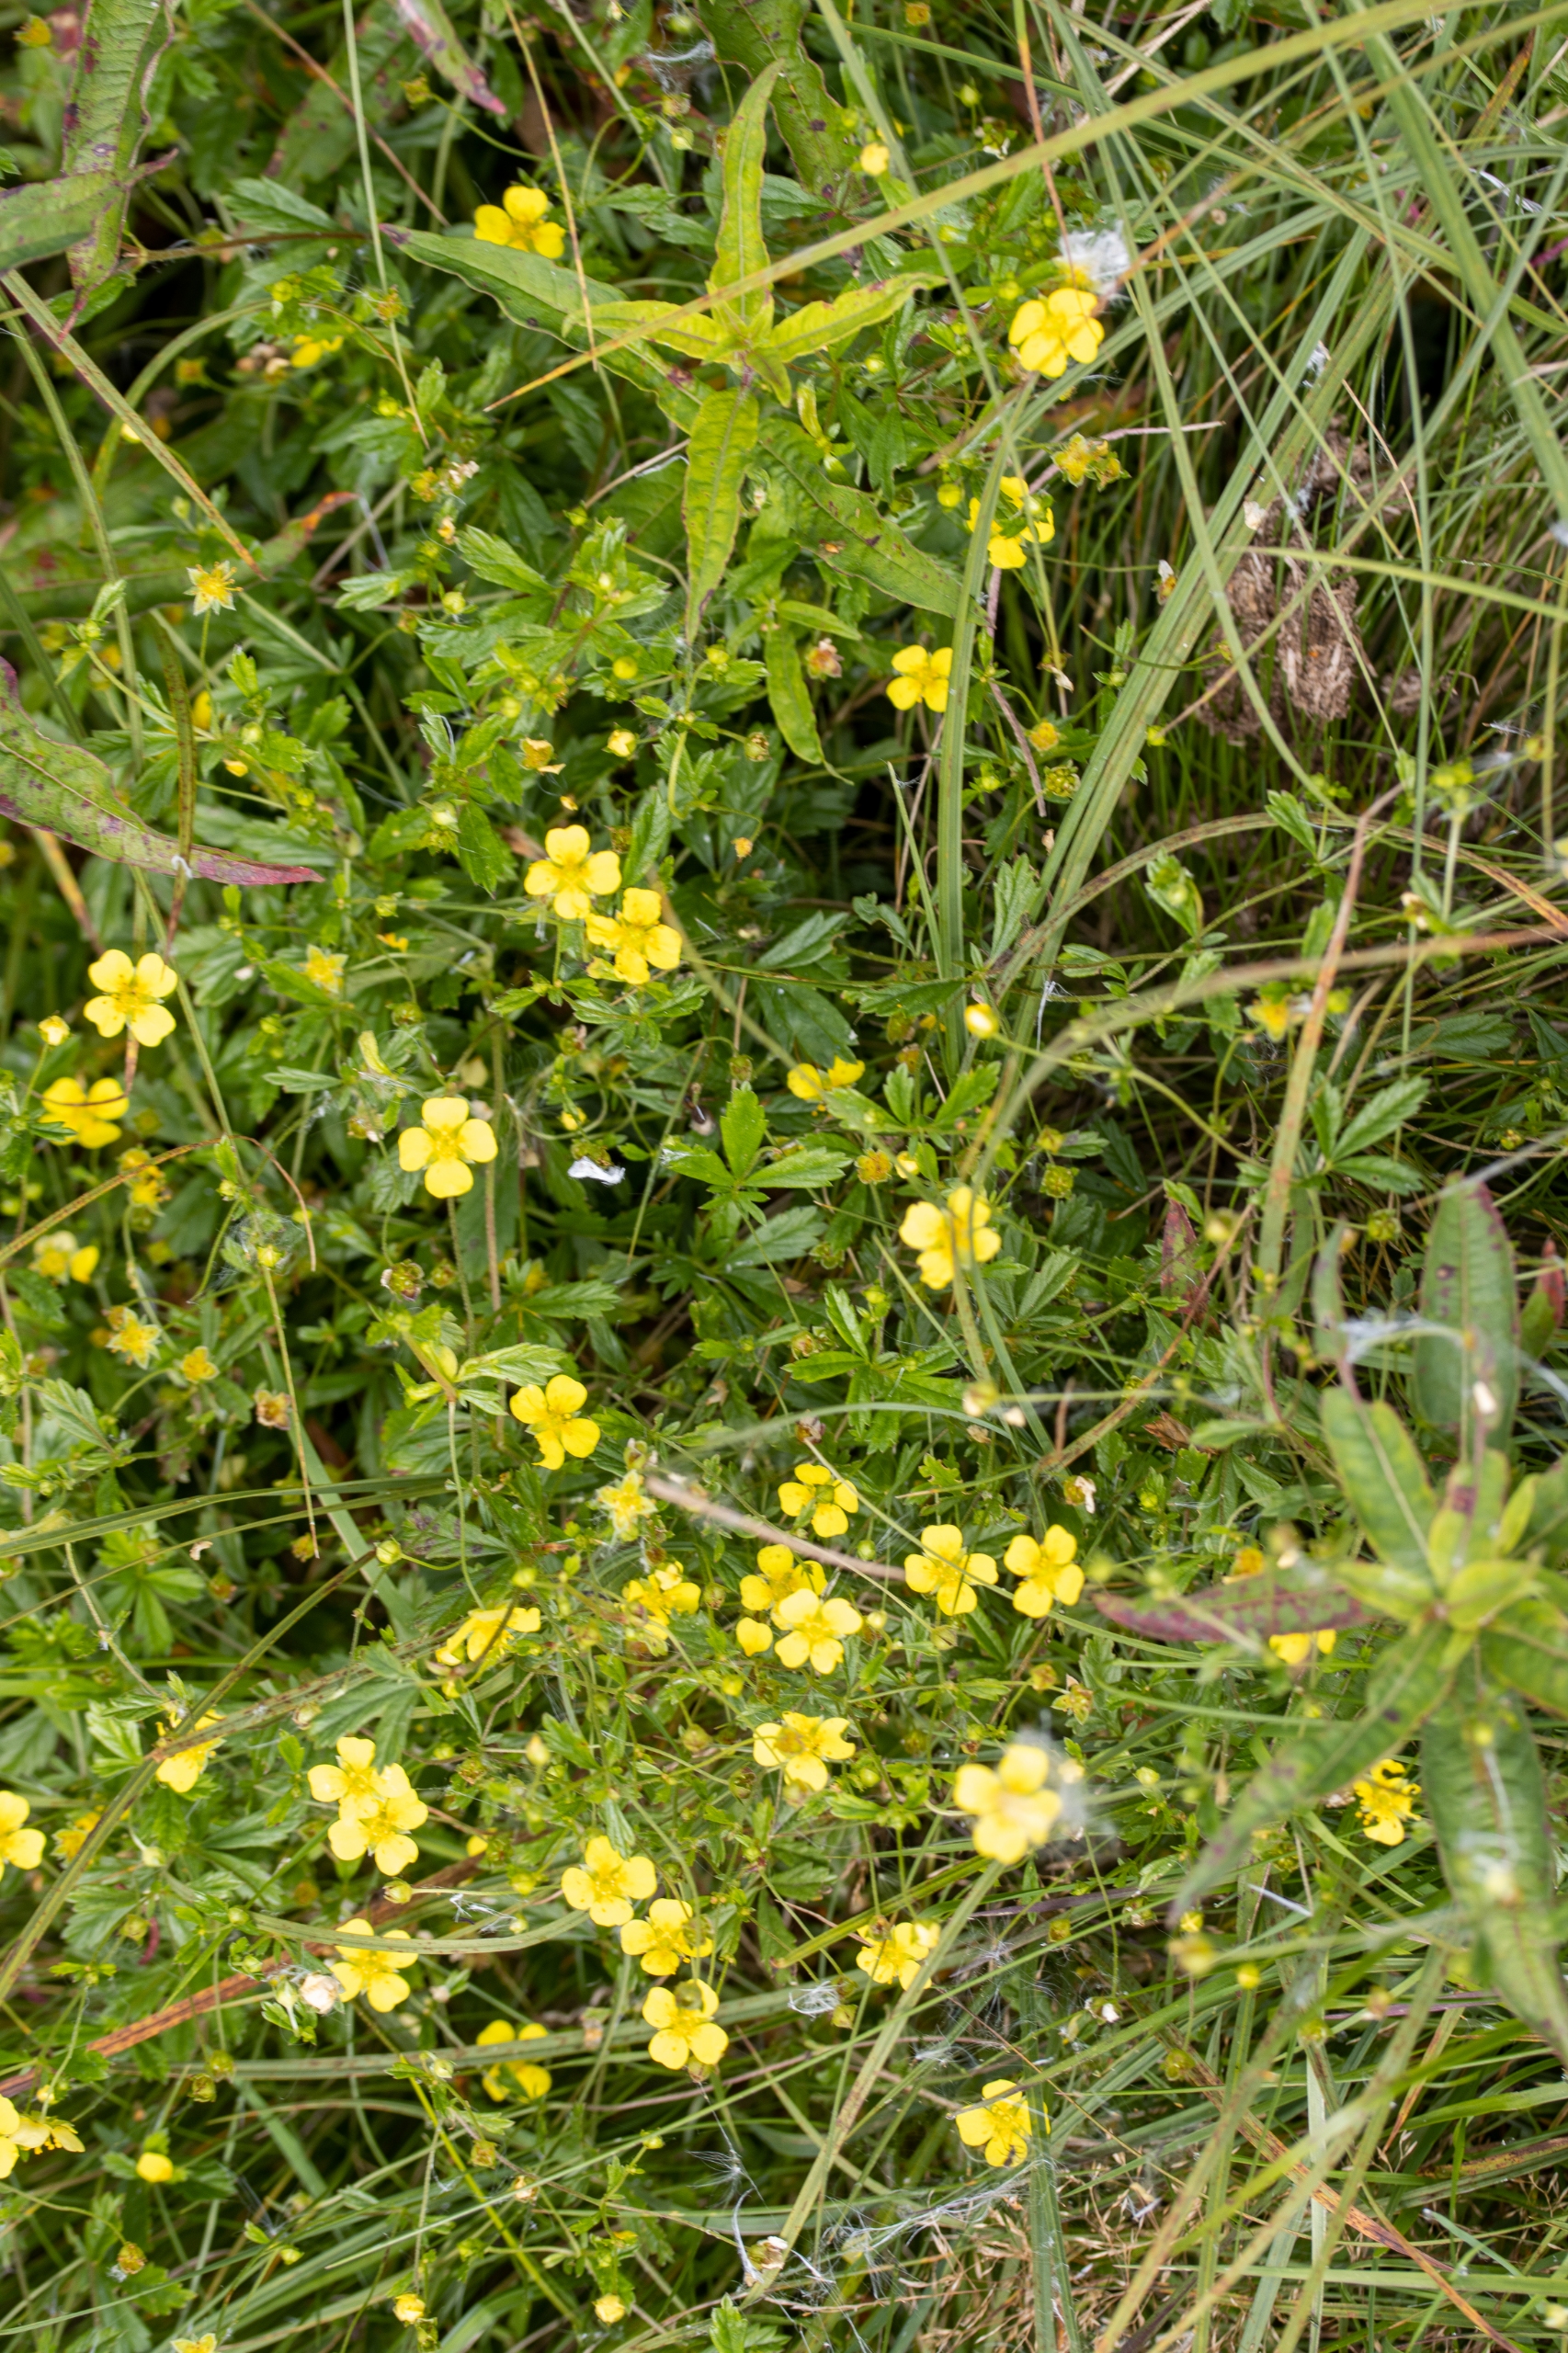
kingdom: Plantae
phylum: Tracheophyta
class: Magnoliopsida
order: Rosales
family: Rosaceae
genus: Potentilla
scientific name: Potentilla erecta
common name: Tormentil
